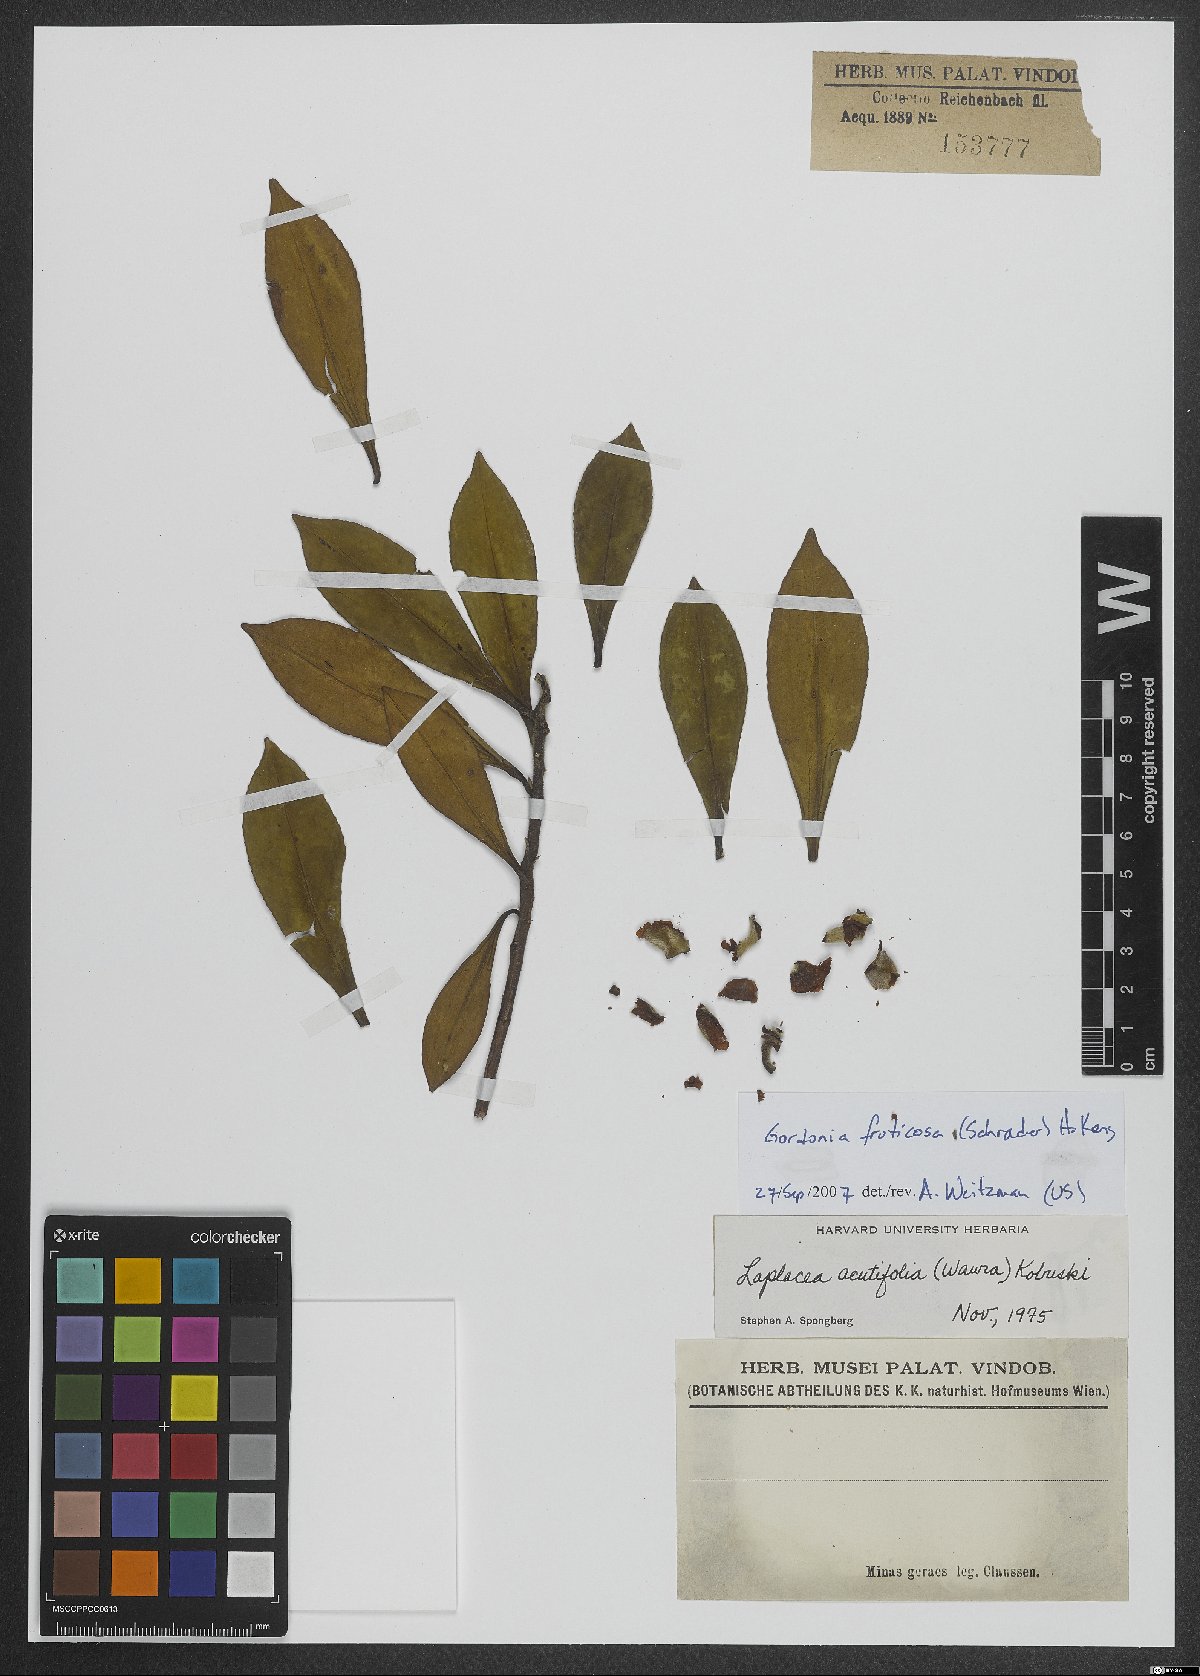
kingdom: Plantae
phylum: Tracheophyta
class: Magnoliopsida
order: Ericales
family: Theaceae
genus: Gordonia
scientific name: Gordonia fruticosa
